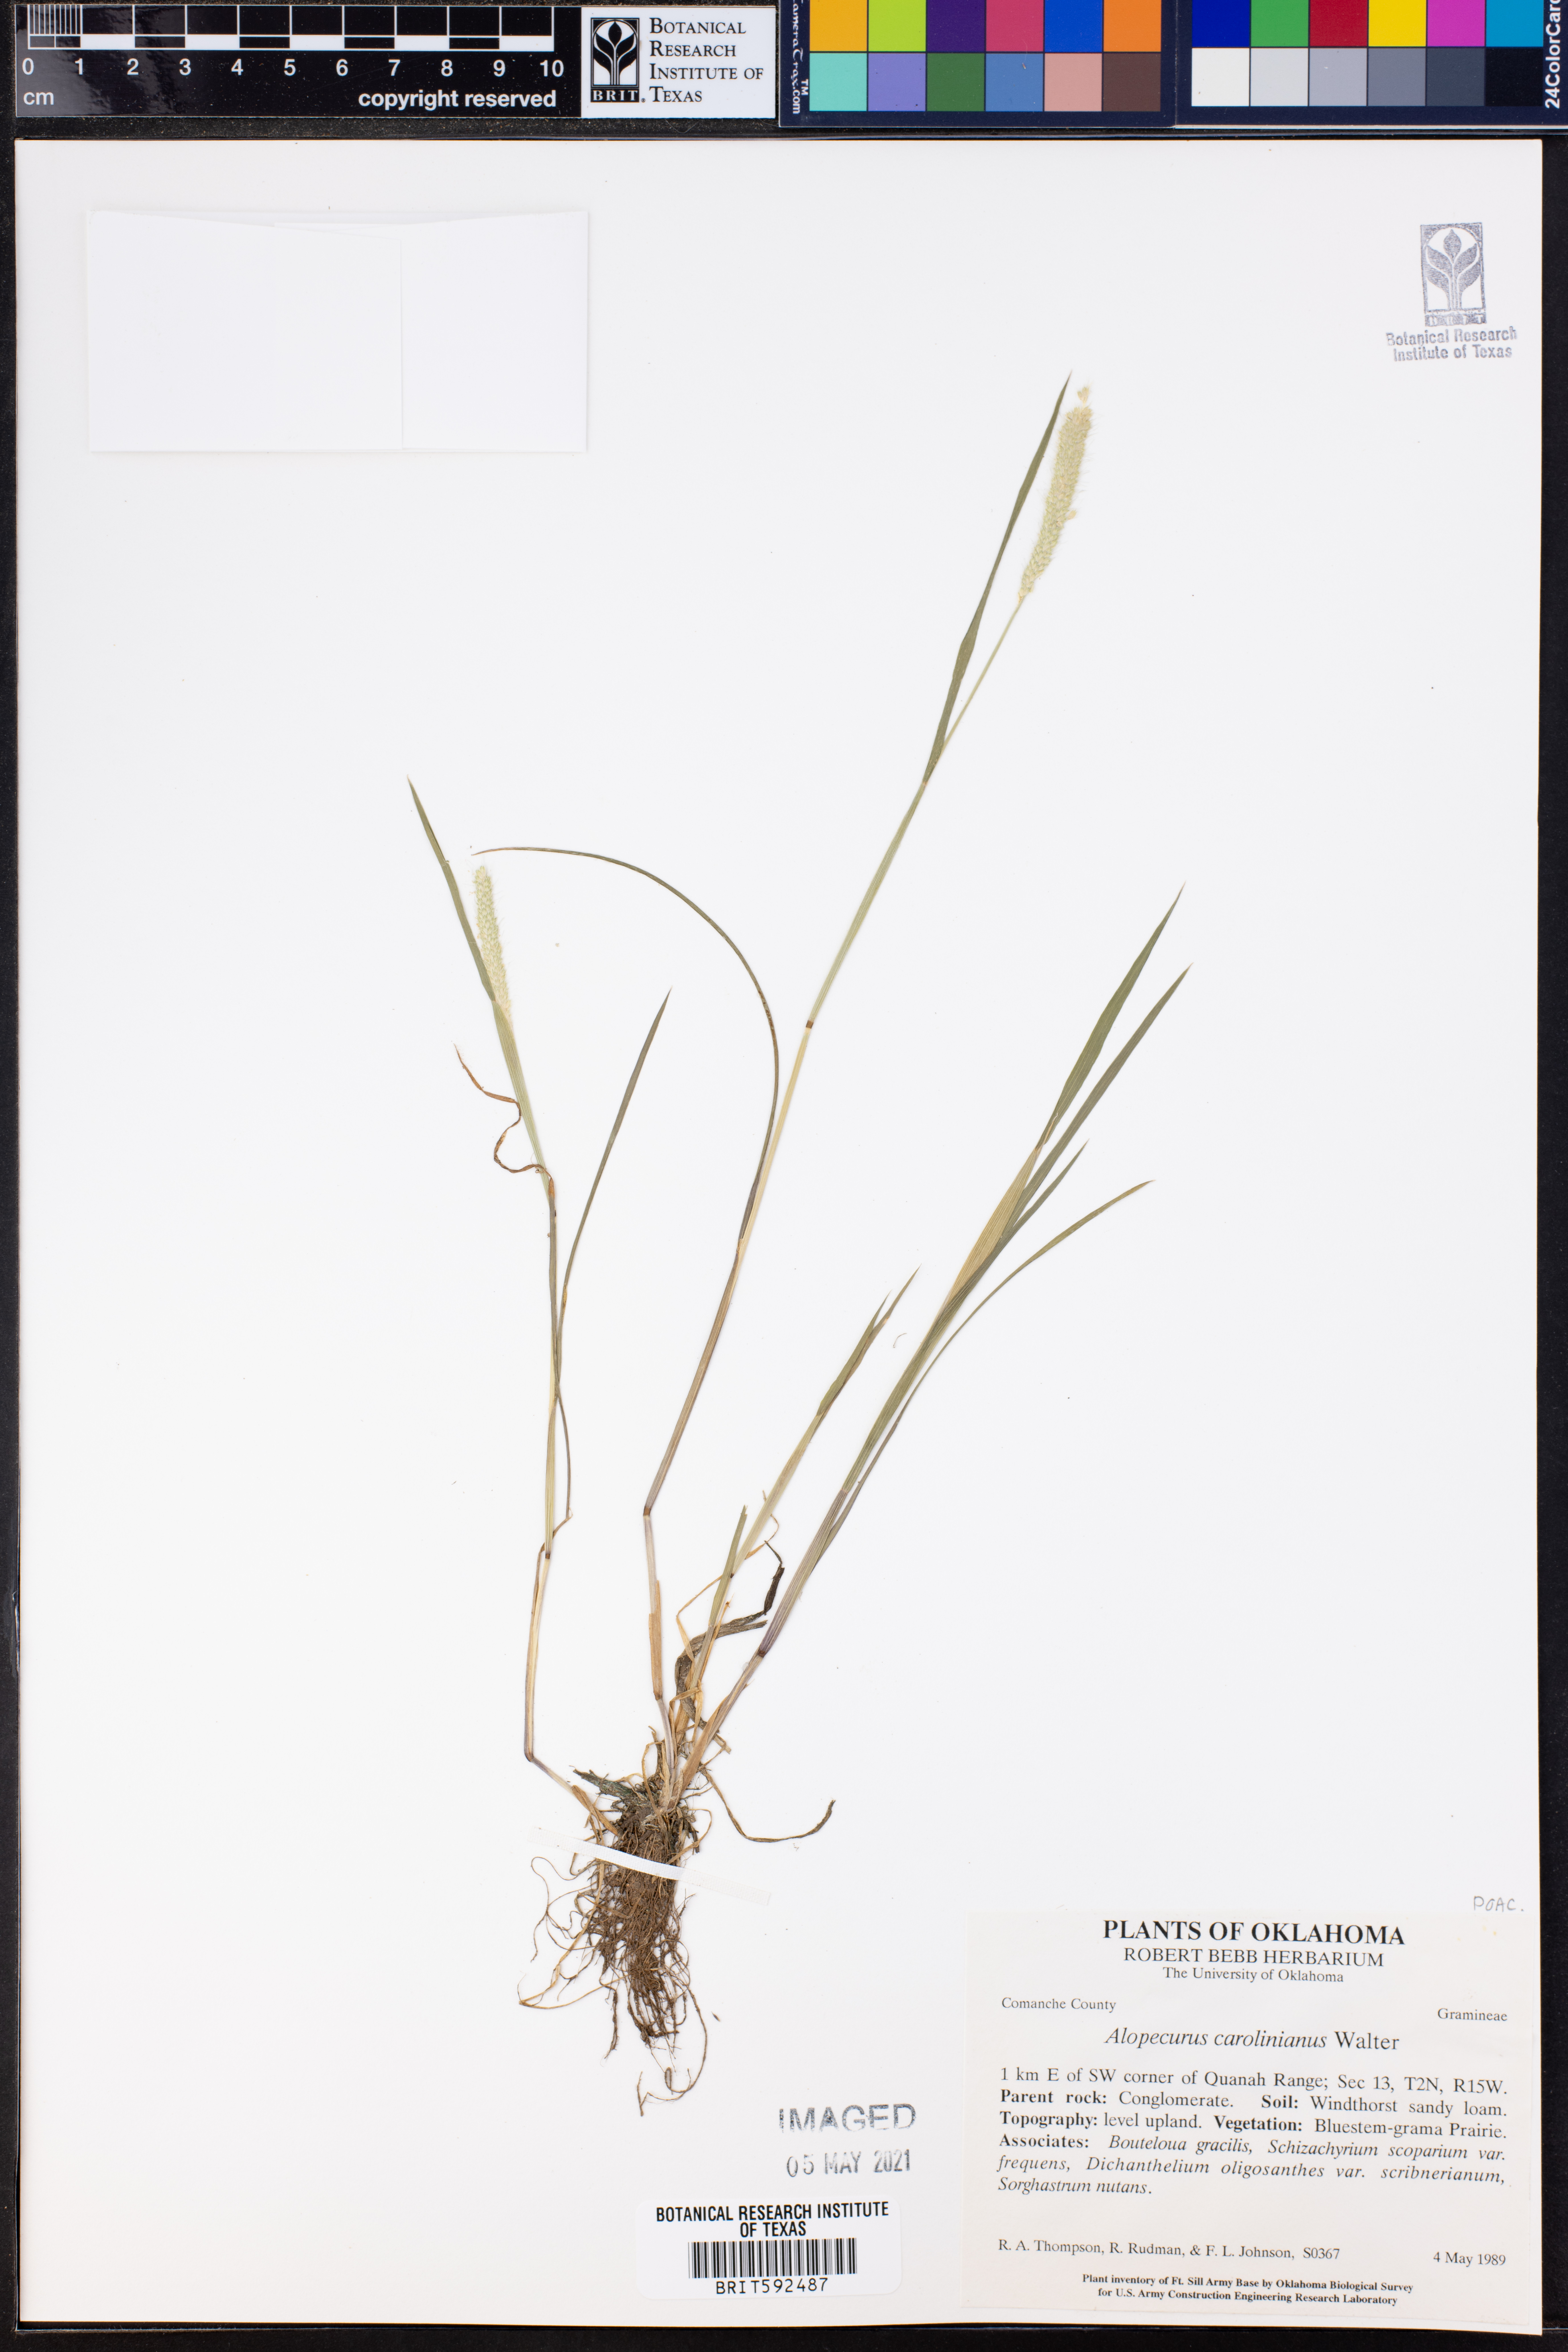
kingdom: Plantae
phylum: Tracheophyta
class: Liliopsida
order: Poales
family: Poaceae
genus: Alopecurus
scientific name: Alopecurus carolinianus
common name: Tufted foxtail
